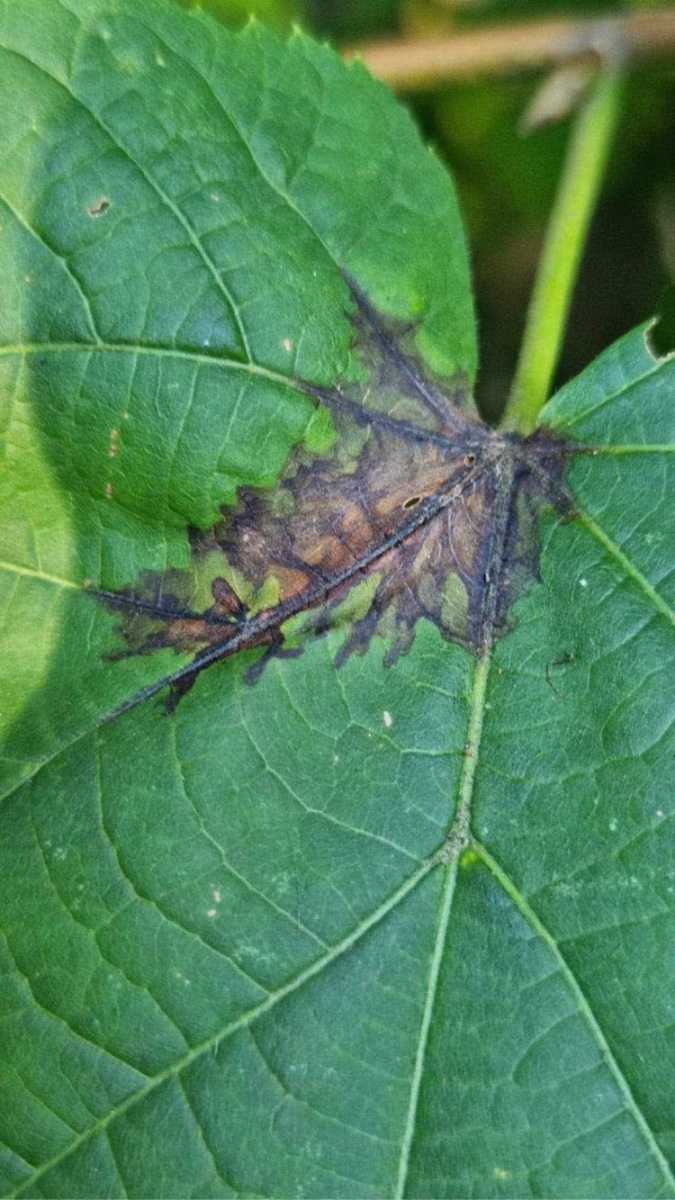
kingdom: Fungi
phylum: Ascomycota
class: Dothideomycetes
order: Pleosporales
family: Didymosphaeriaceae
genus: Paraconiothyrium
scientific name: Paraconiothyrium tiliae
